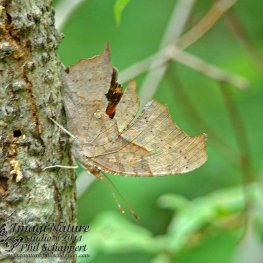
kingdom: Animalia
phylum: Arthropoda
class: Insecta
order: Lepidoptera
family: Nymphalidae
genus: Polygonia
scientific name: Polygonia interrogationis
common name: Question Mark
